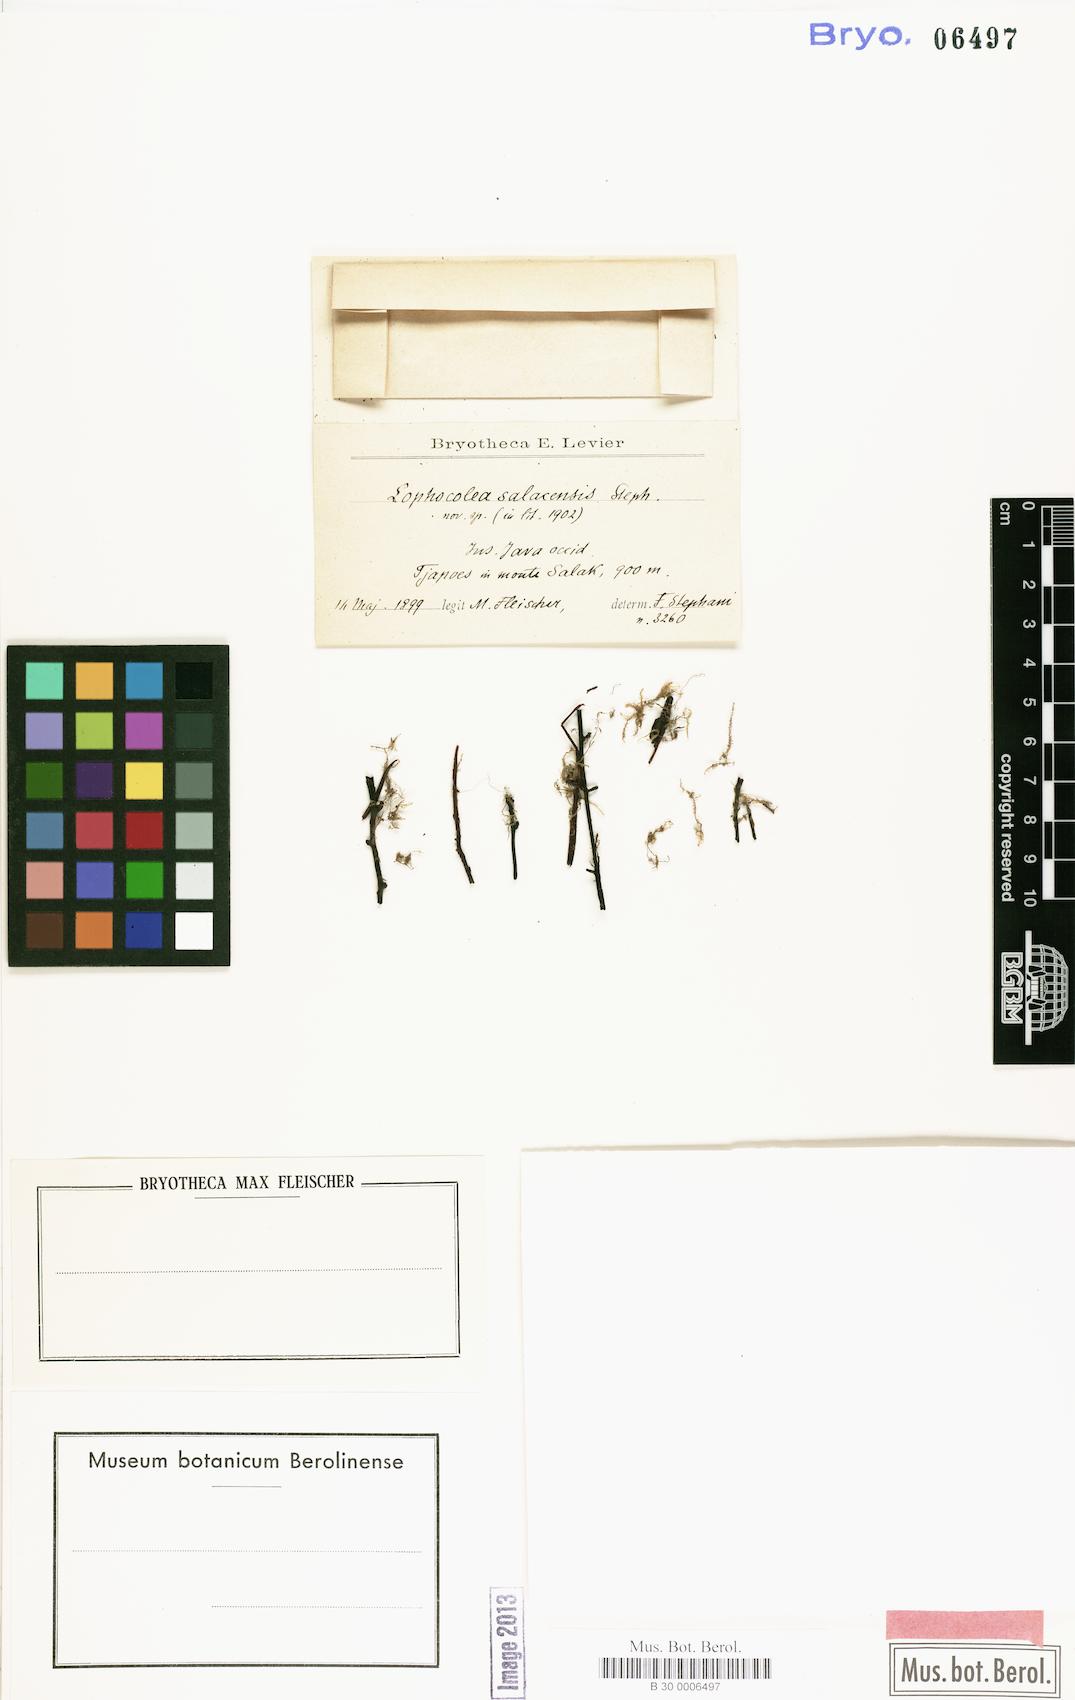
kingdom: Plantae
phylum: Marchantiophyta
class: Jungermanniopsida
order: Jungermanniales
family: Lophocoleaceae
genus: Lophocolea
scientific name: Lophocolea salacensis
